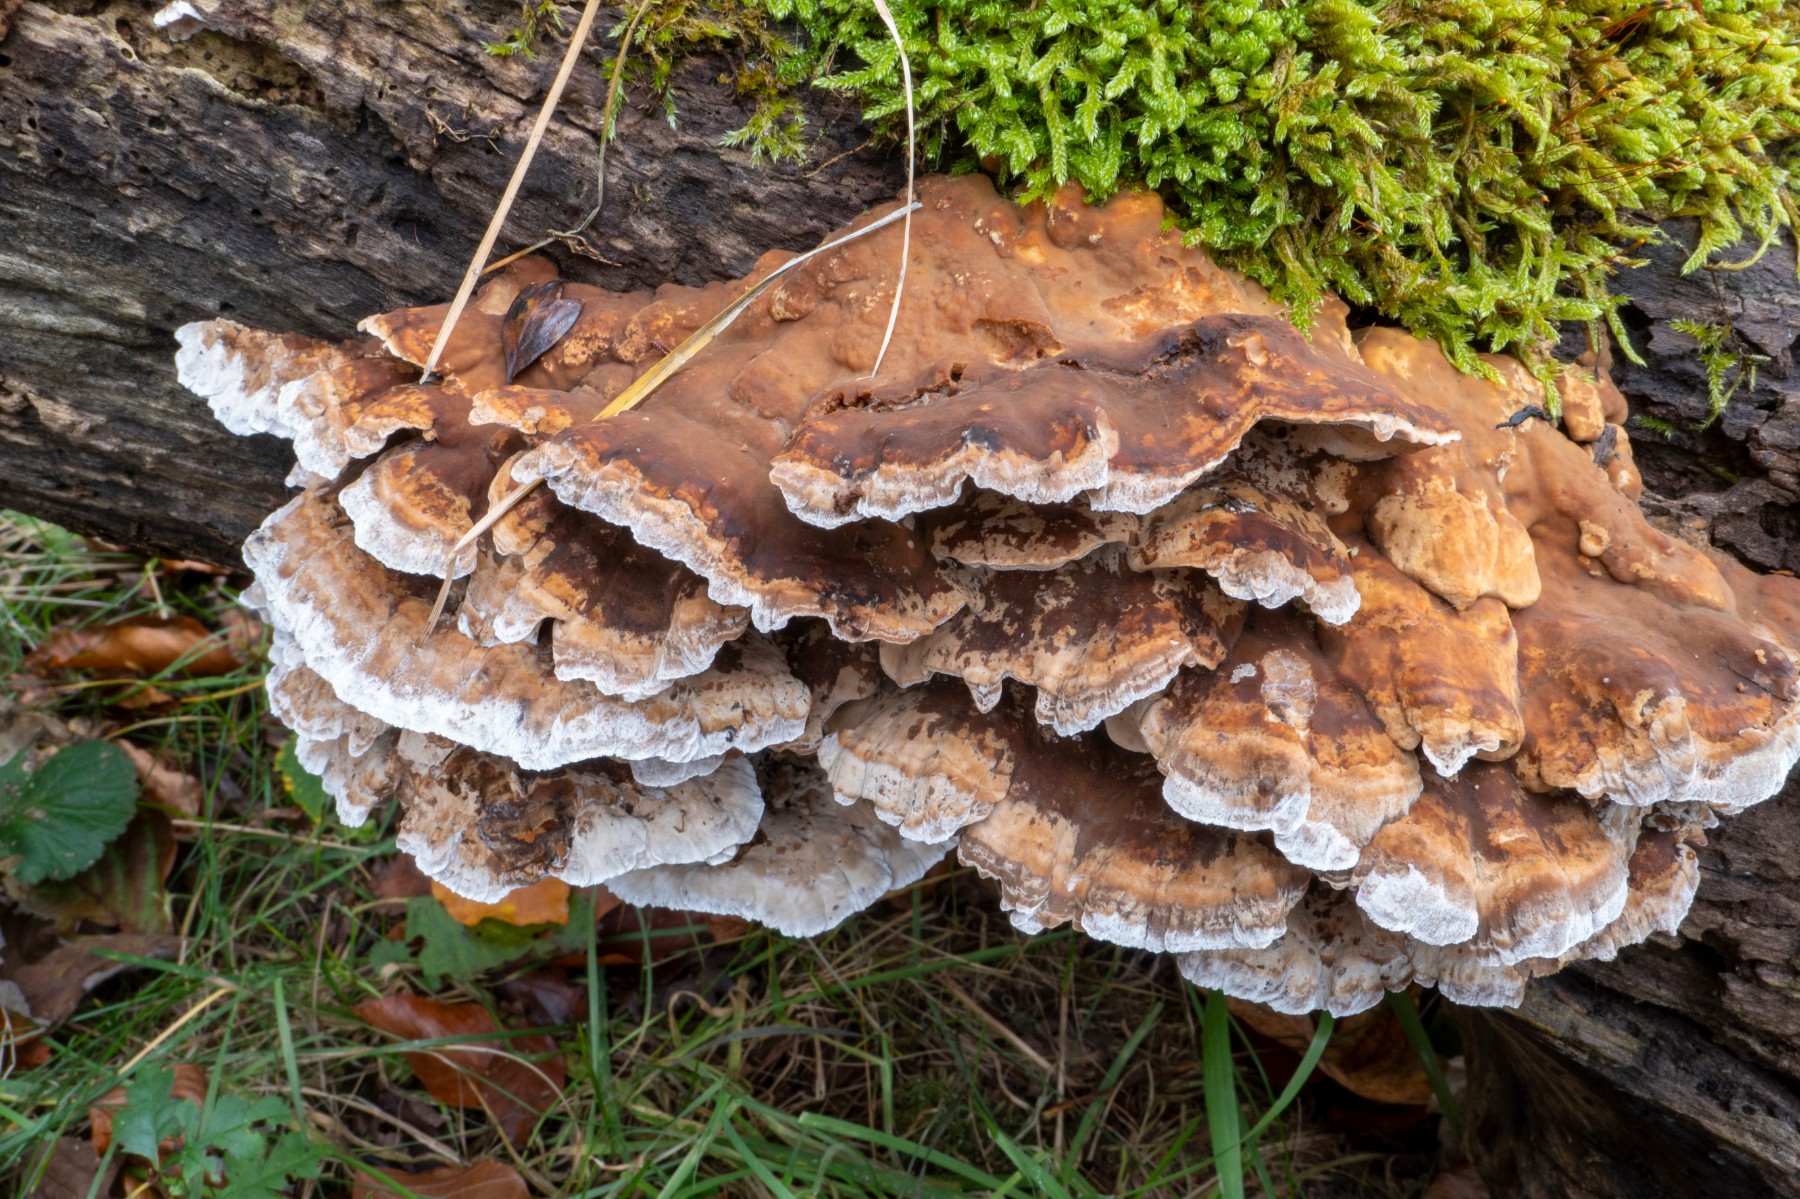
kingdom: Fungi
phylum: Basidiomycota
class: Agaricomycetes
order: Polyporales
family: Phanerochaetaceae
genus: Bjerkandera
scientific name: Bjerkandera fumosa
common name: grågul sodporesvamp
